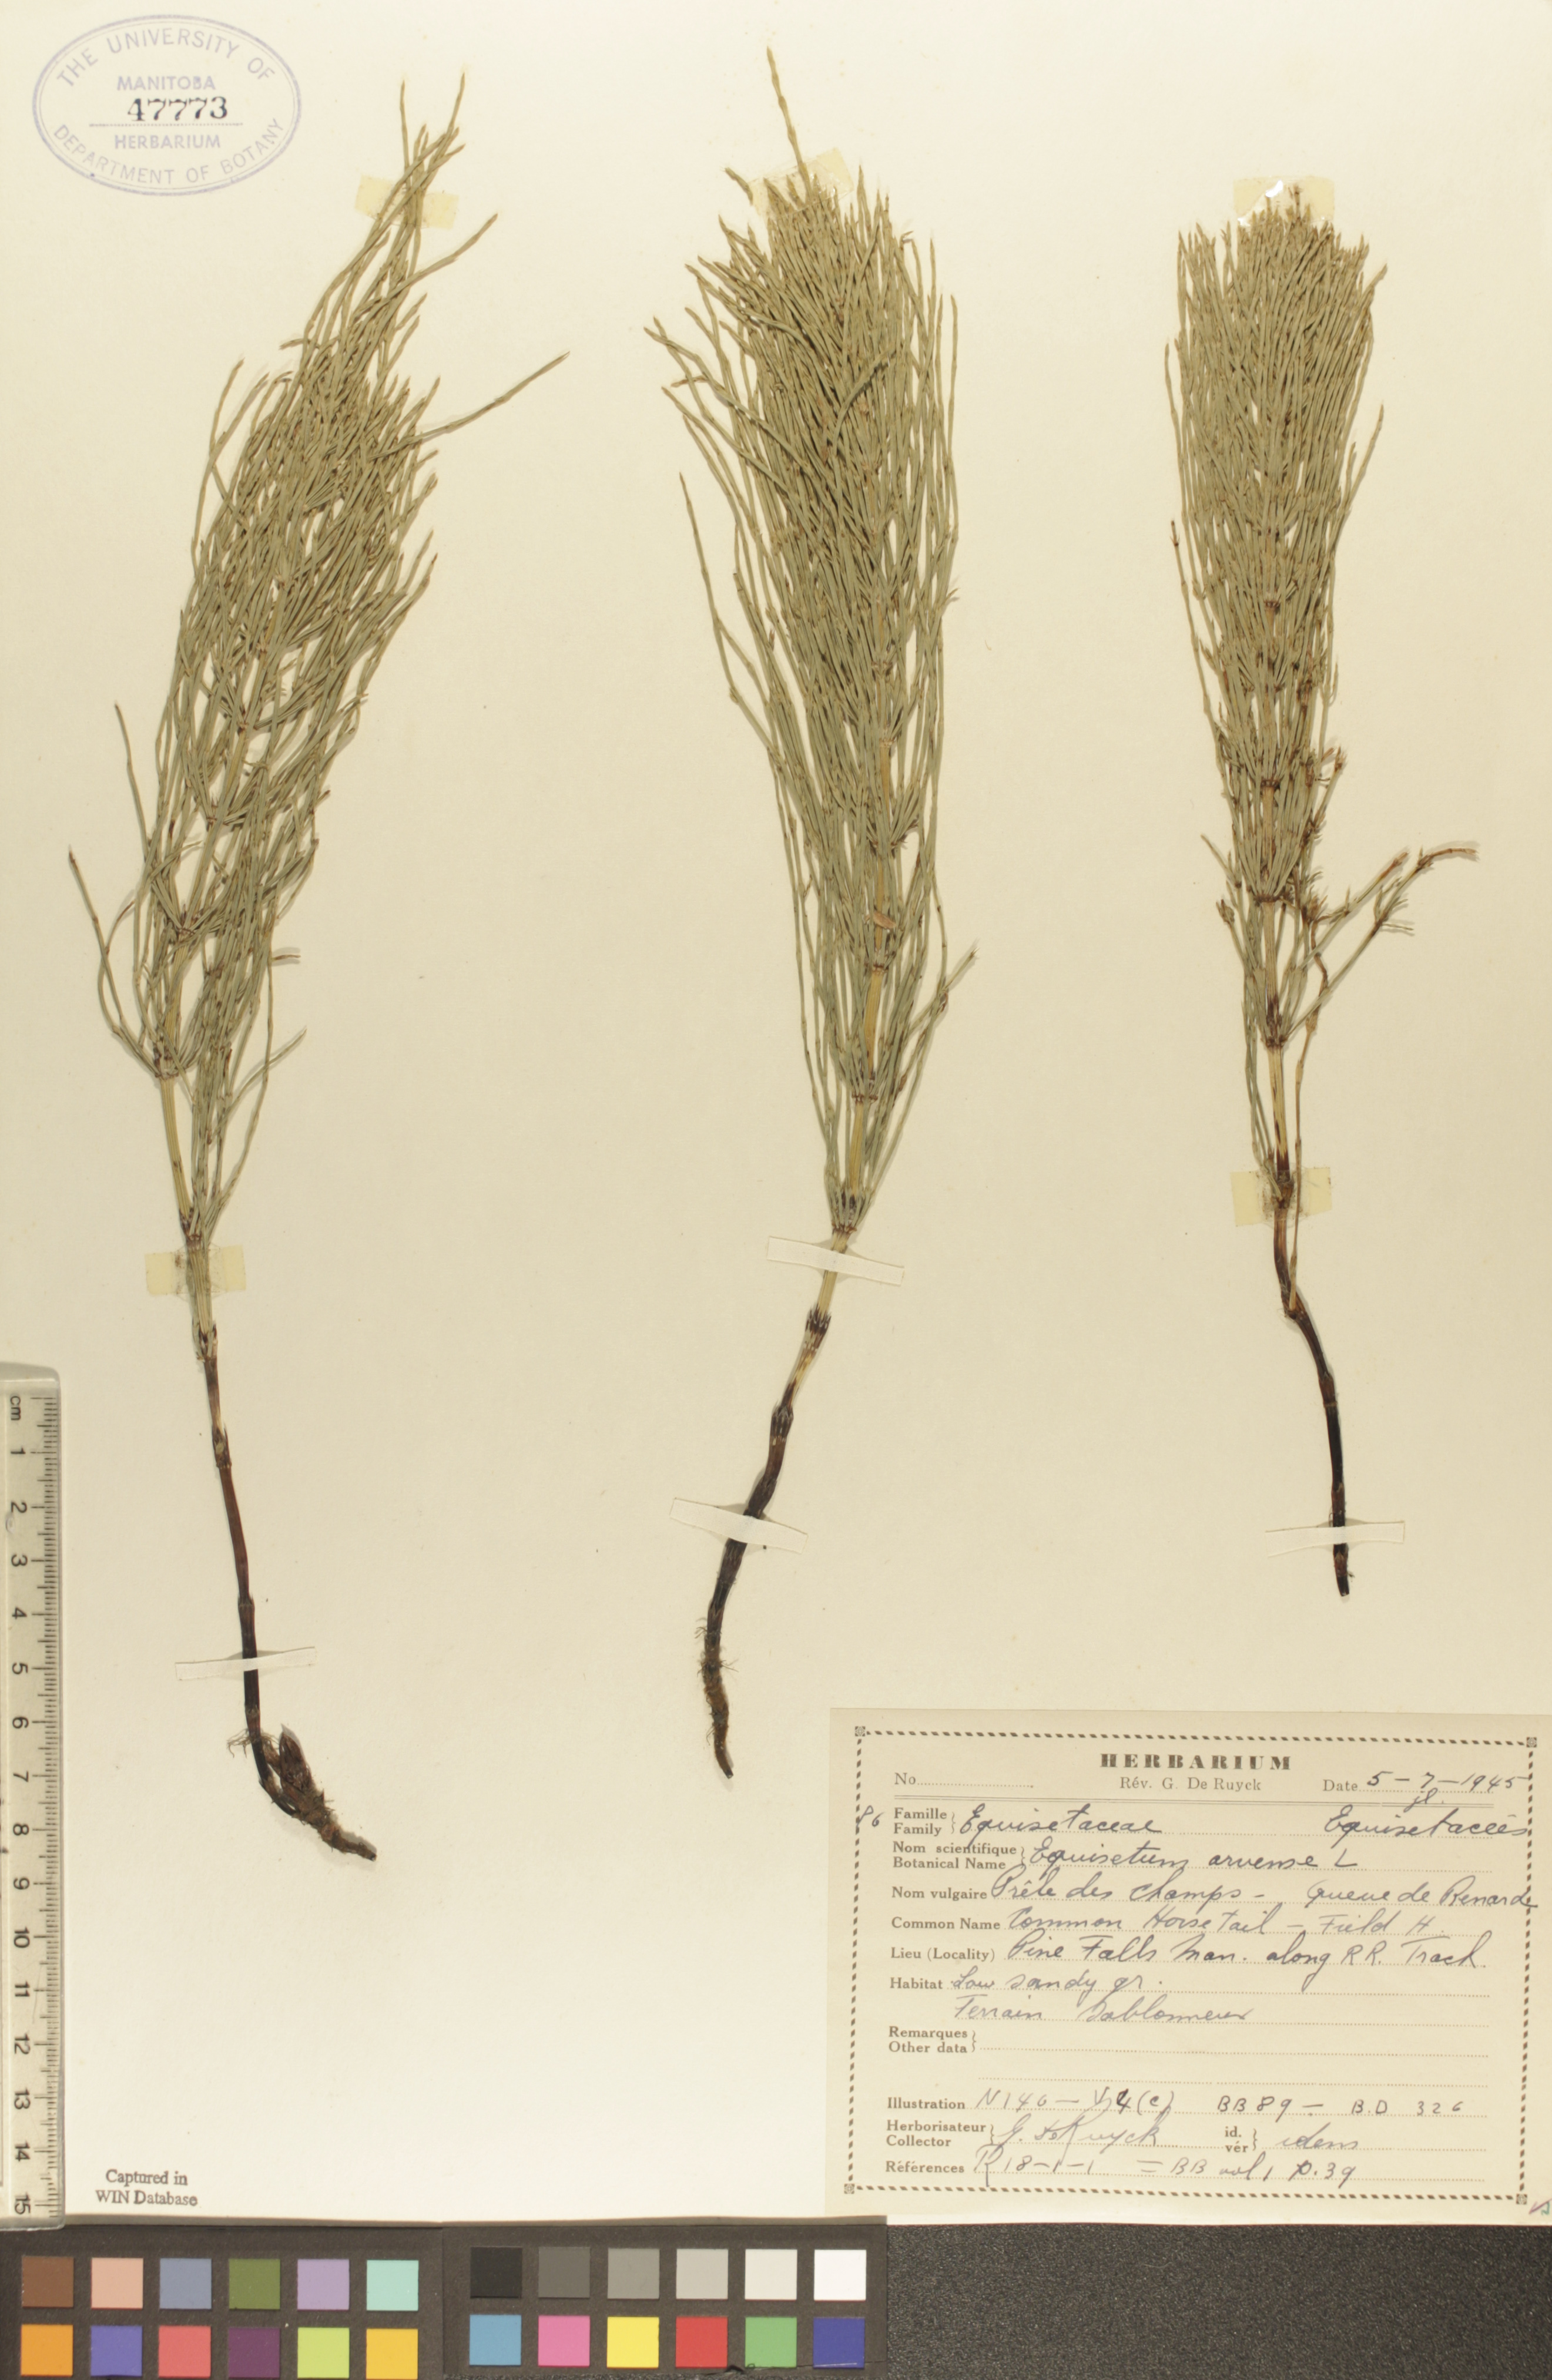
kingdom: Plantae
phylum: Tracheophyta
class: Polypodiopsida
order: Equisetales
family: Equisetaceae
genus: Equisetum
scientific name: Equisetum arvense
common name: Field horsetail
